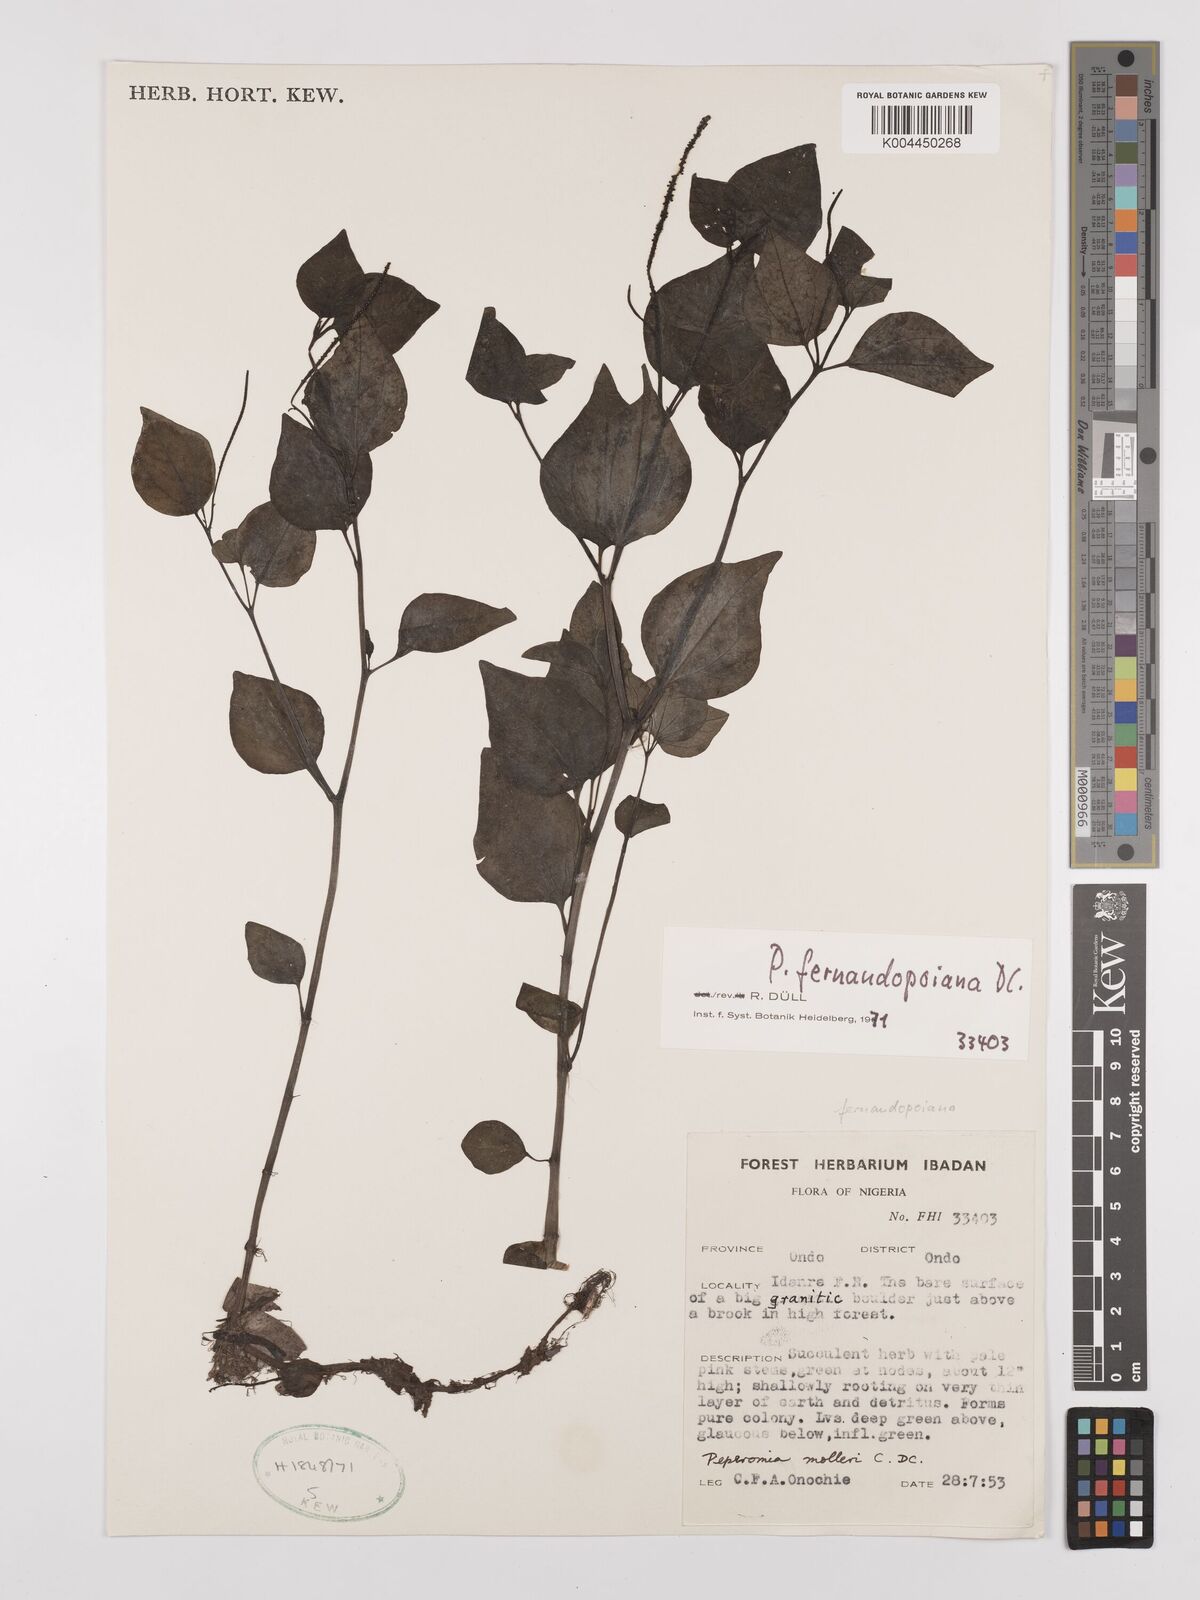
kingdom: Plantae
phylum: Tracheophyta
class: Magnoliopsida
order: Piperales
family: Piperaceae
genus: Peperomia
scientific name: Peperomia fernandeziana
